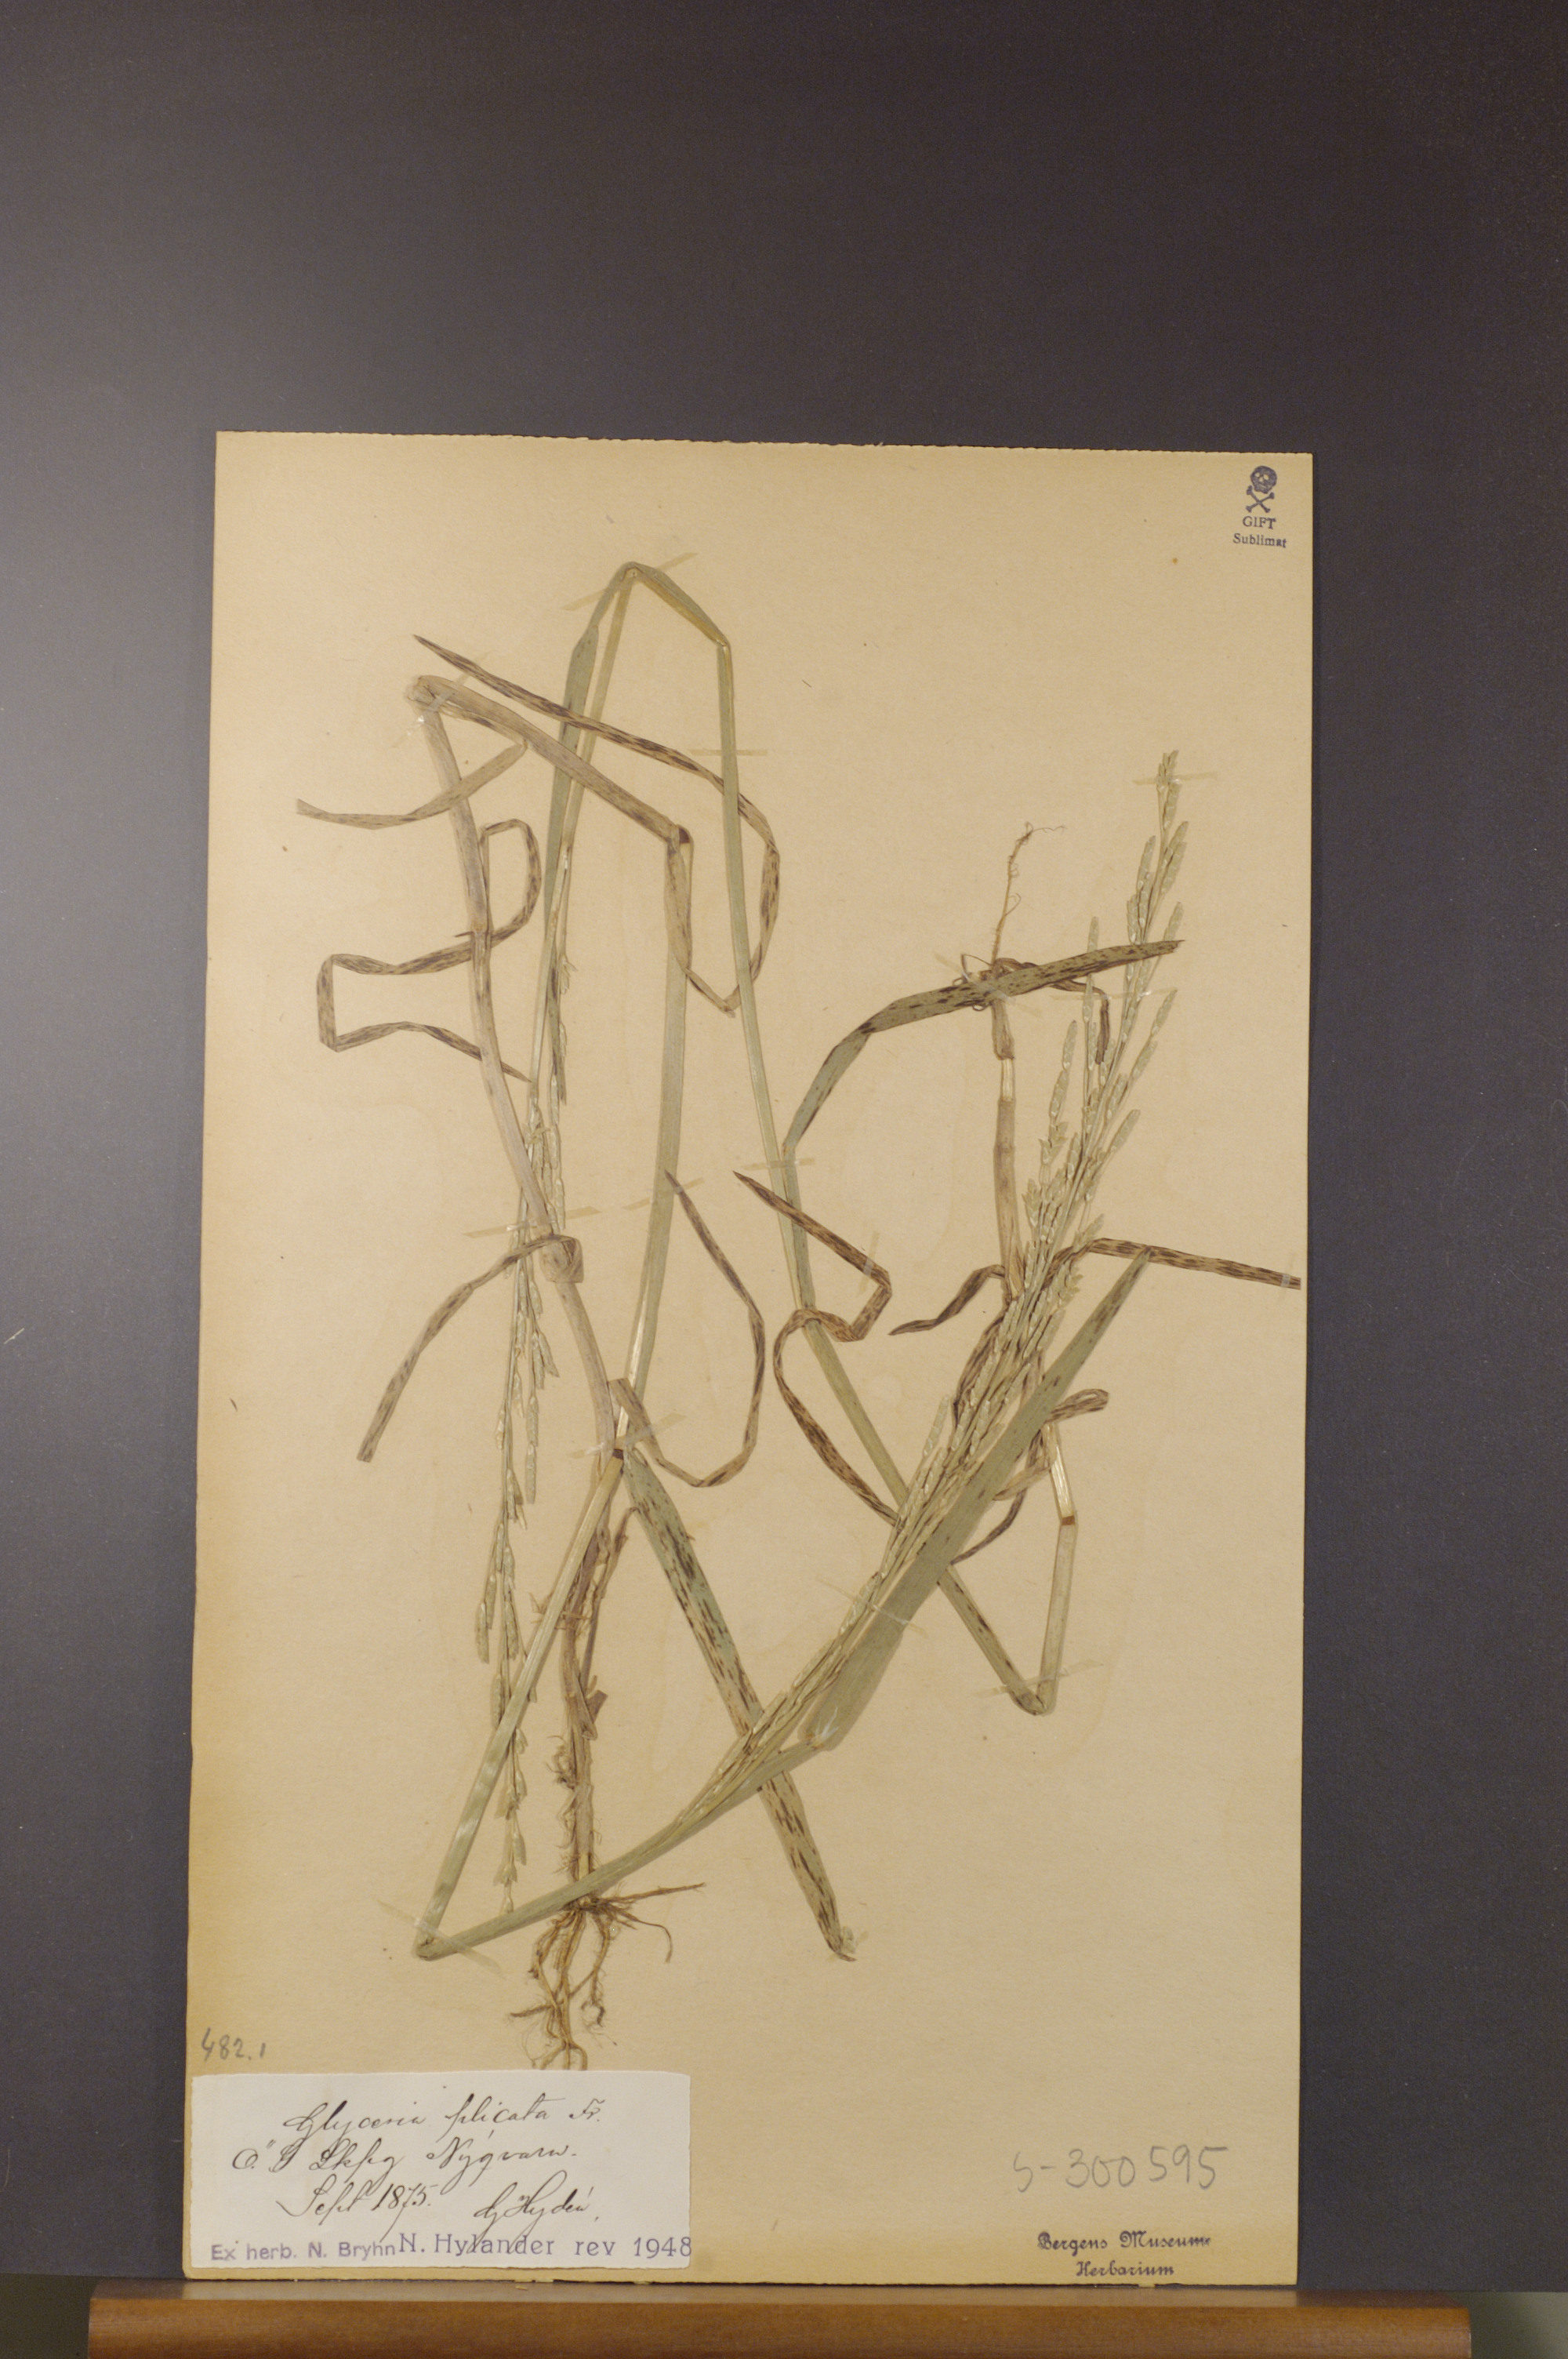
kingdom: Plantae
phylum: Tracheophyta
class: Liliopsida
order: Poales
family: Poaceae
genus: Glyceria
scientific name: Glyceria notata
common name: Plicate sweet-grass
